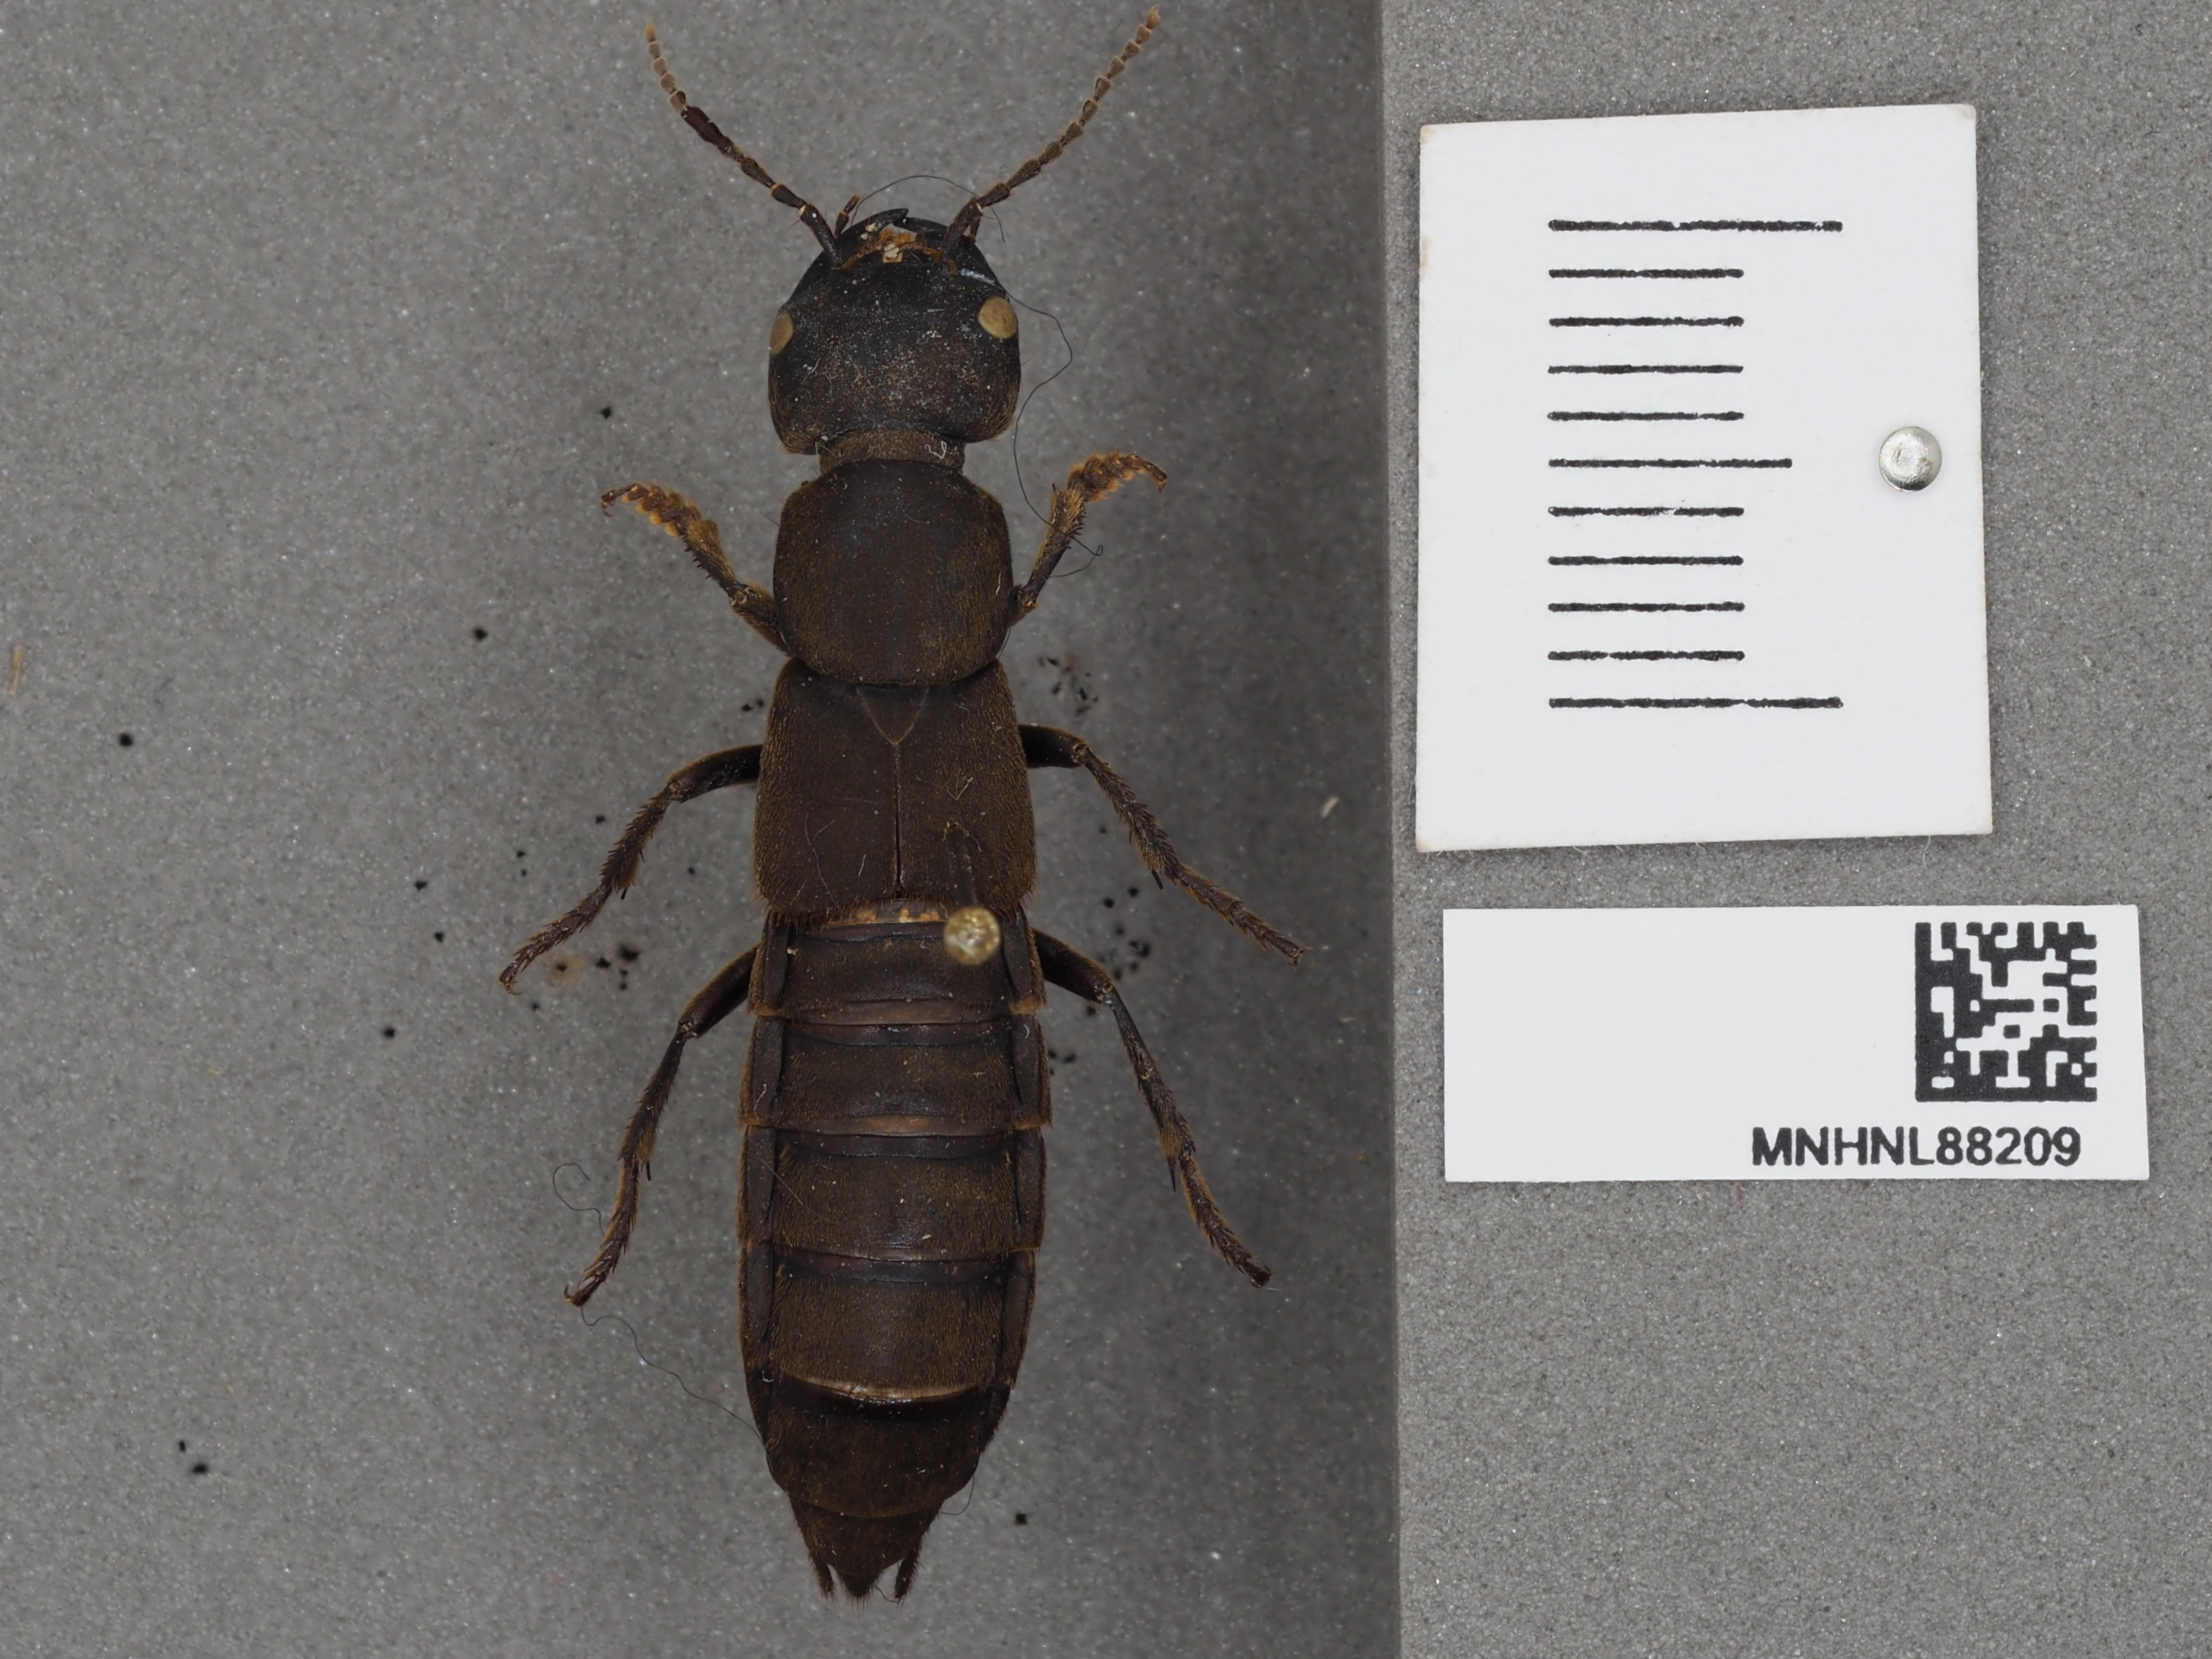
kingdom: Animalia
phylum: Arthropoda
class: Insecta
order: Coleoptera
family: Staphylinidae
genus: Ocypus
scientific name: Ocypus olens
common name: Devil's coach-horse
